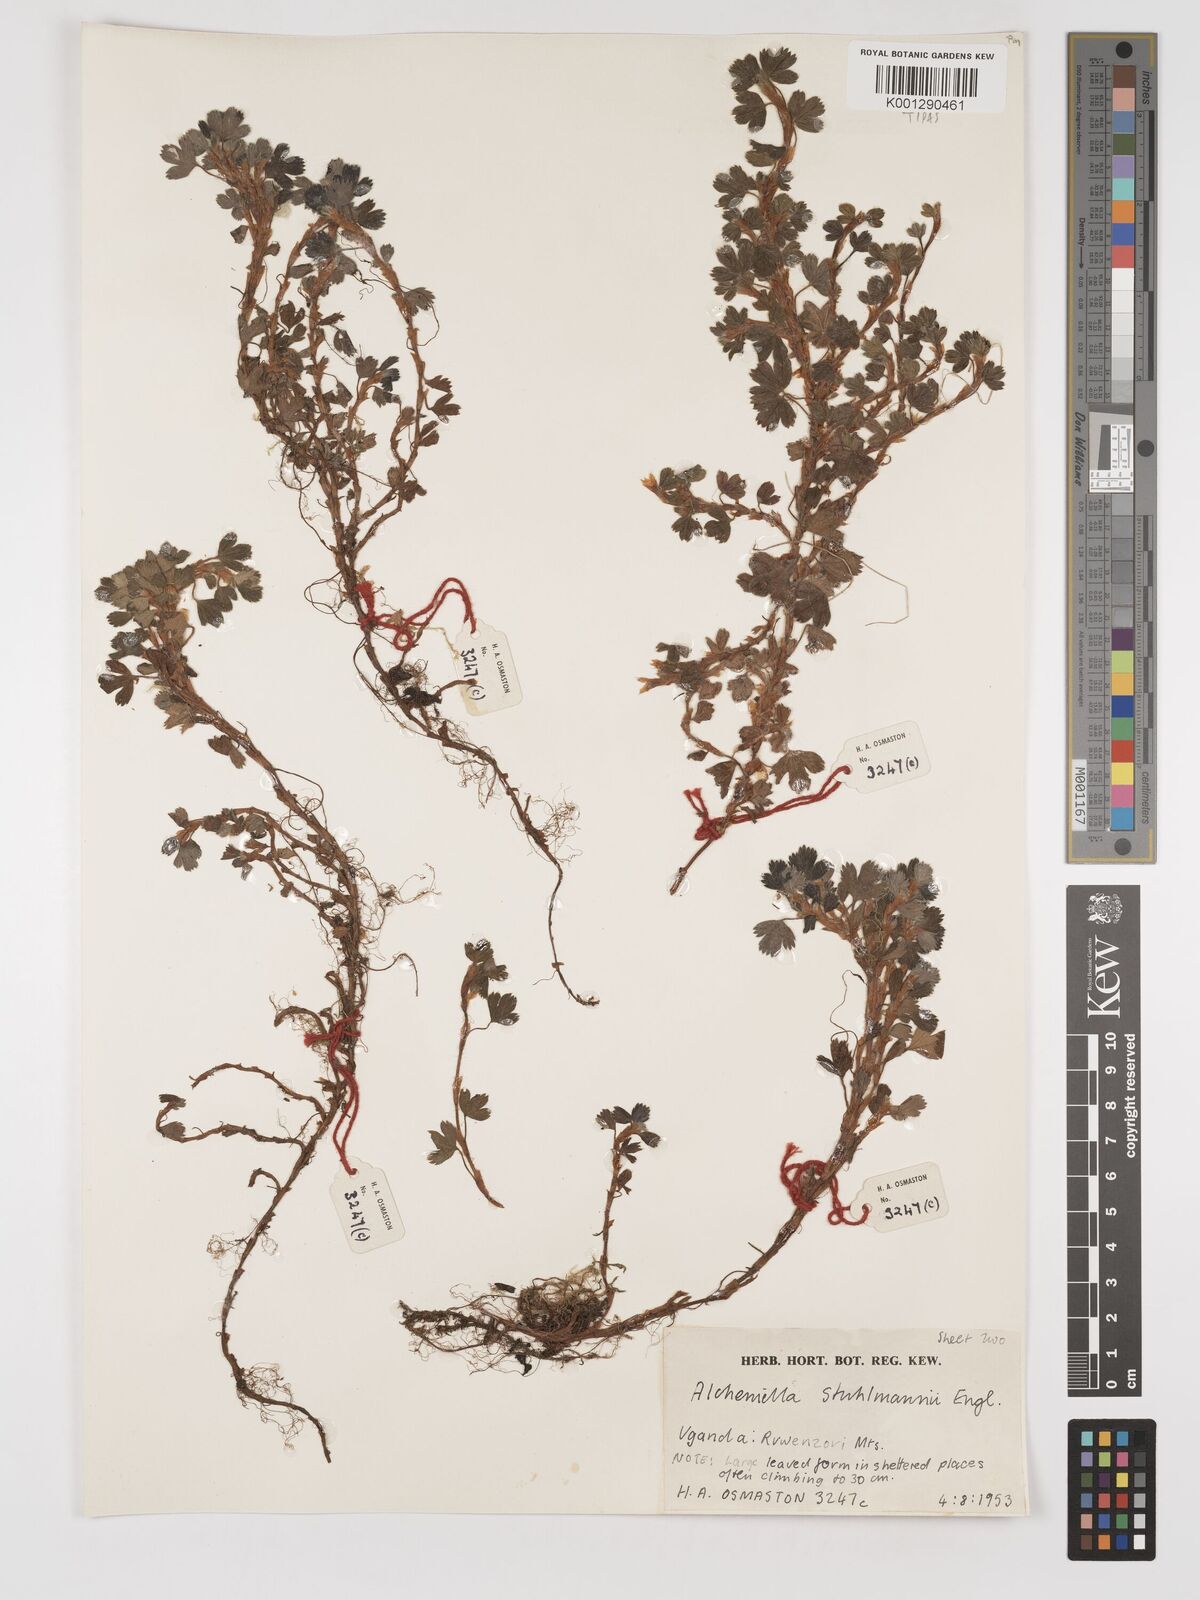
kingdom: Plantae
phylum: Tracheophyta
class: Magnoliopsida
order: Rosales
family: Rosaceae
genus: Alchemilla
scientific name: Alchemilla stuhlmannii
